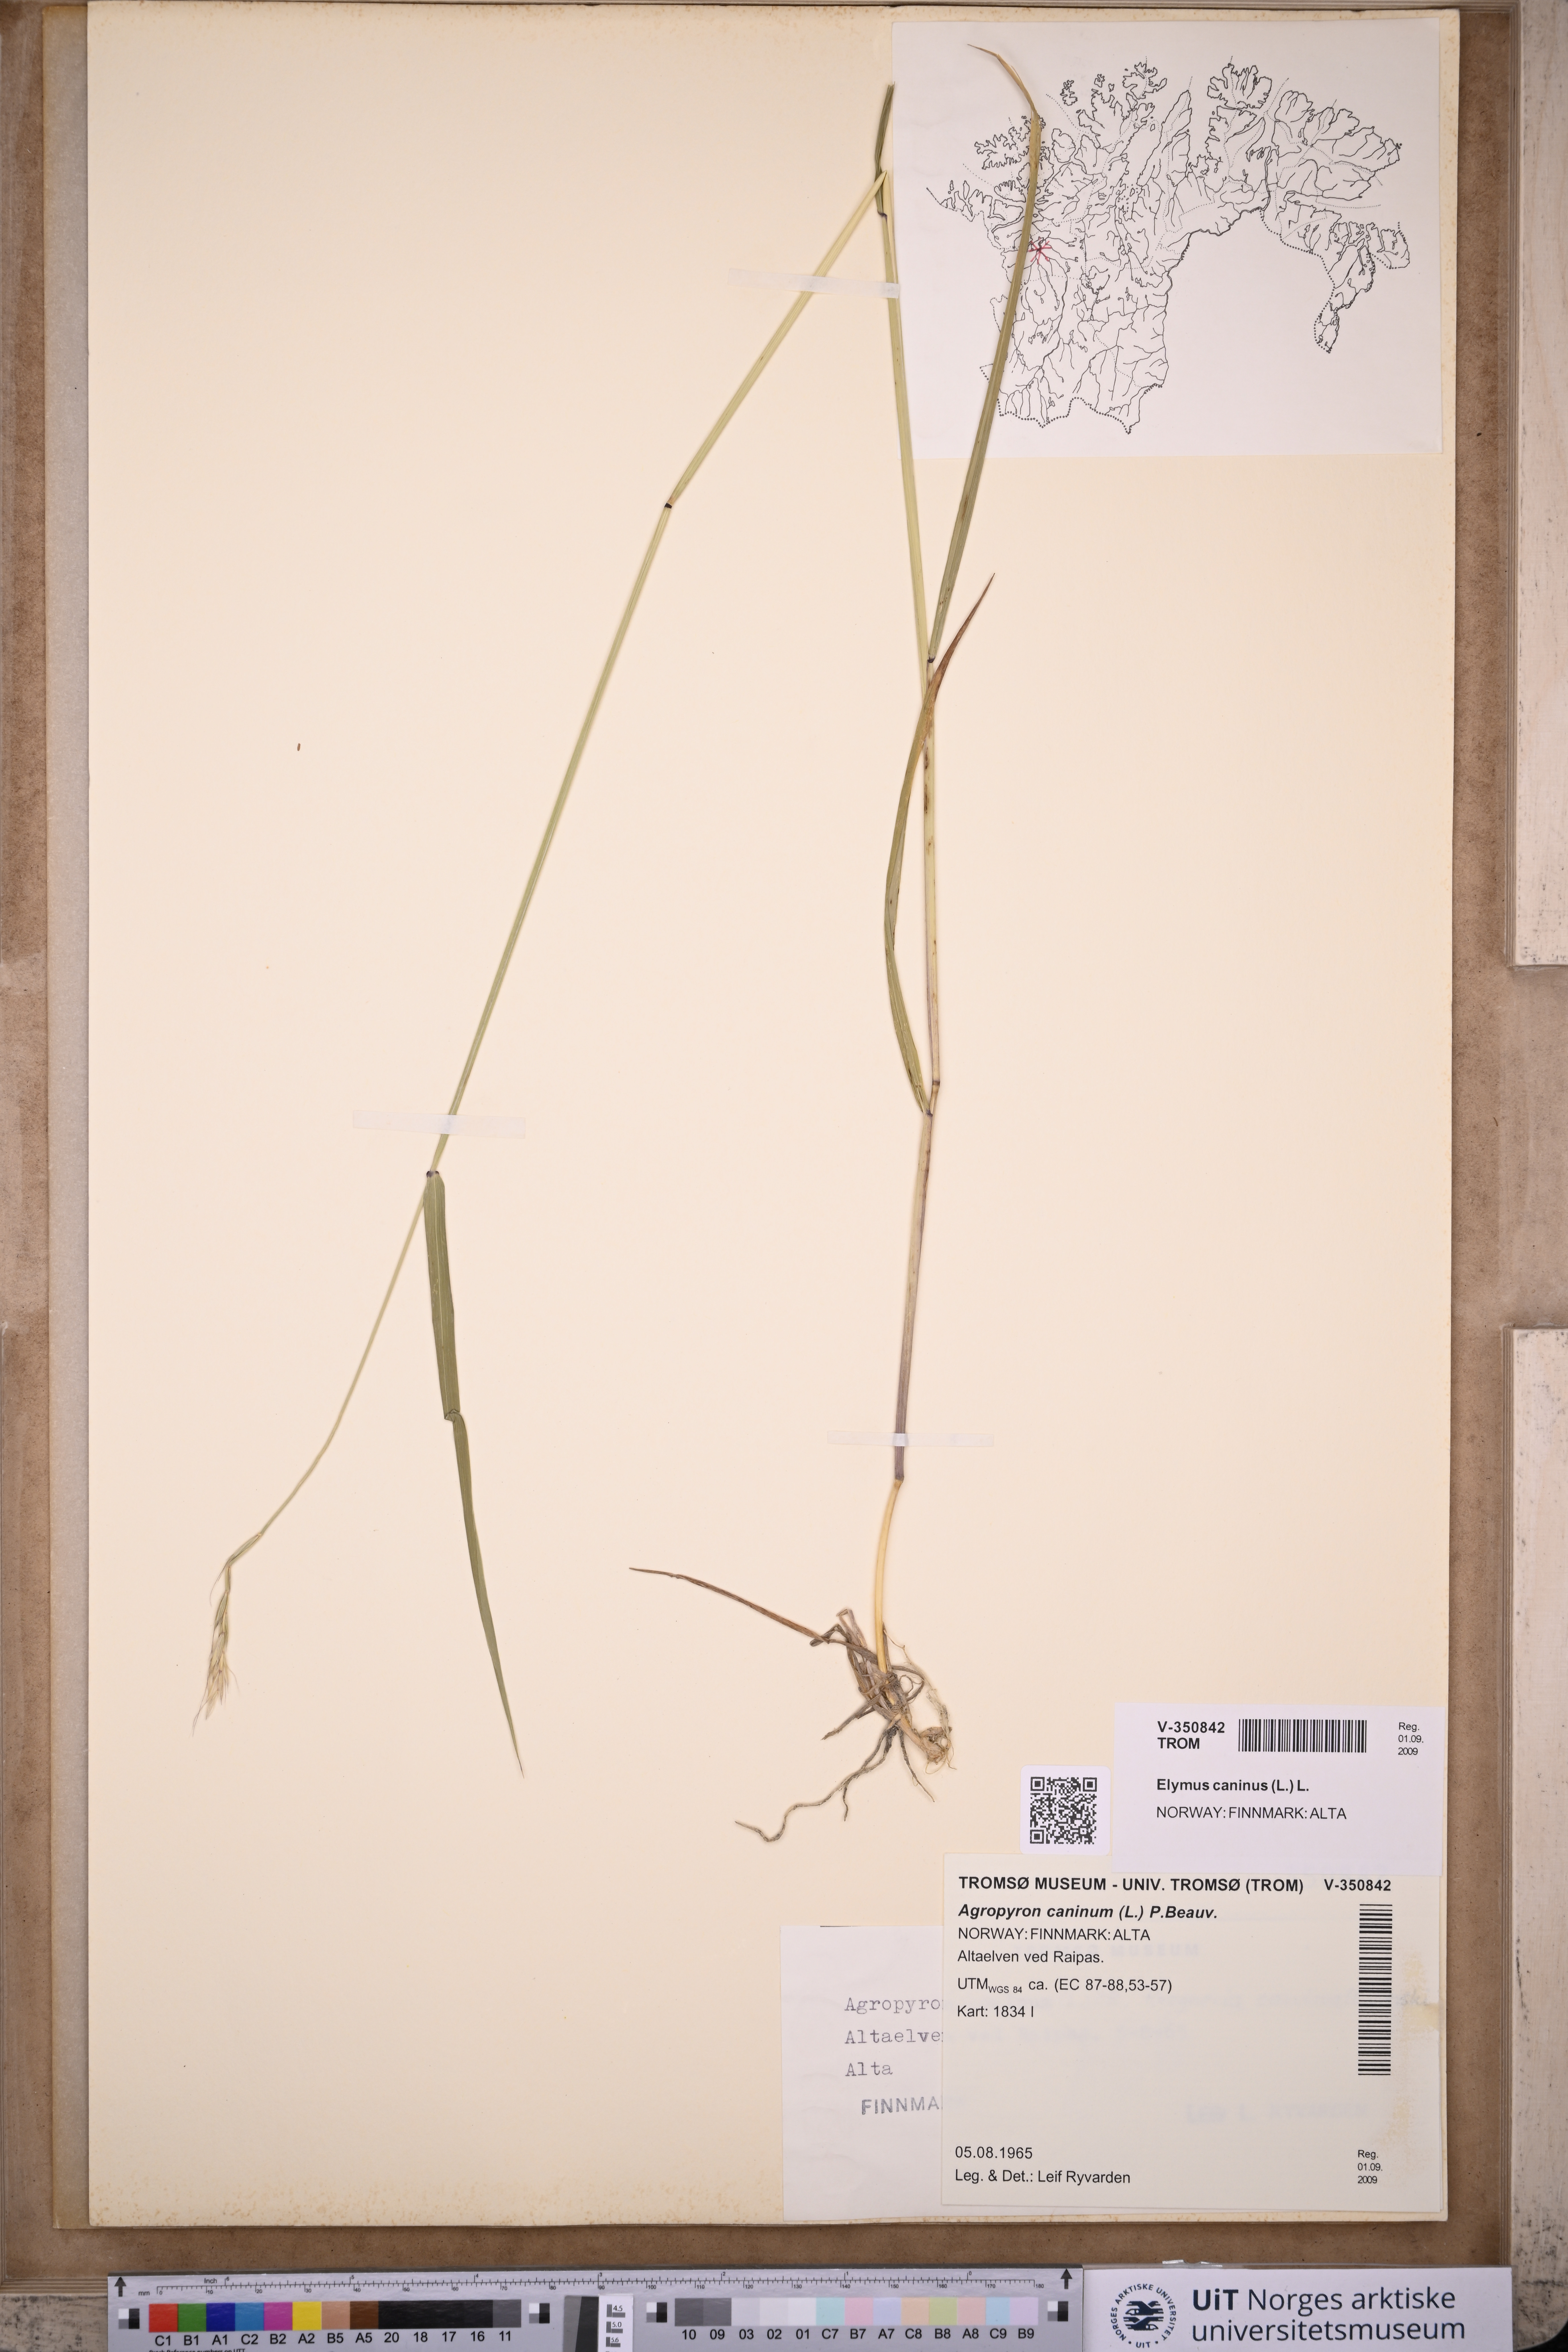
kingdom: Plantae
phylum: Tracheophyta
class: Liliopsida
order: Poales
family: Poaceae
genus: Elymus
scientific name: Elymus caninus
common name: Bearded couch
